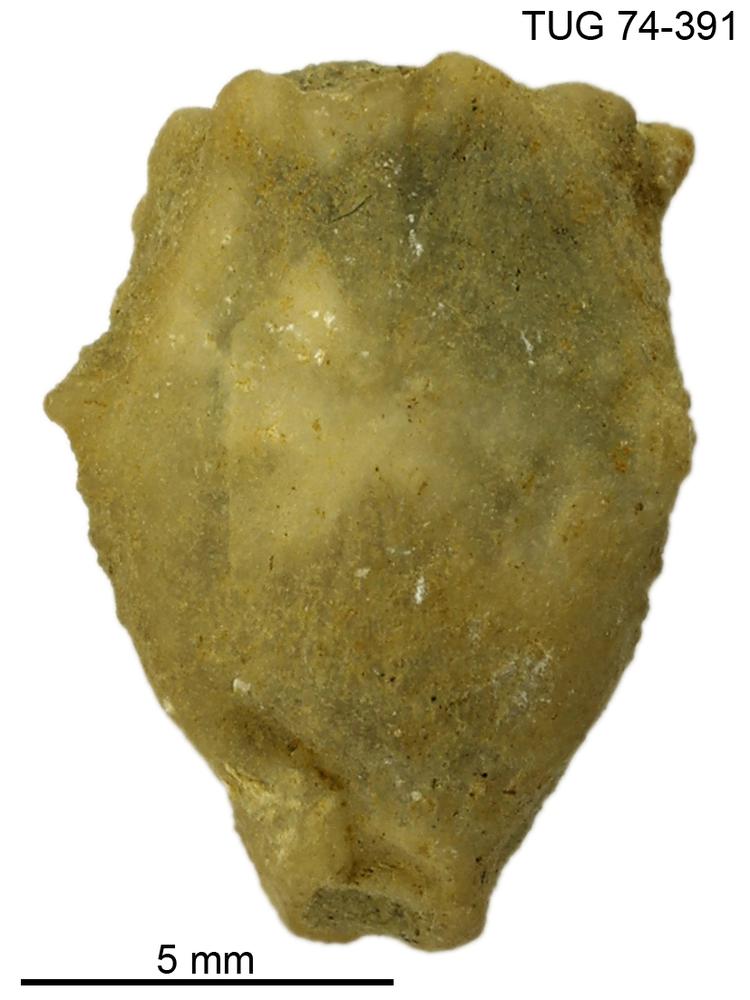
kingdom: Animalia
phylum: Echinodermata
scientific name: Echinodermata
